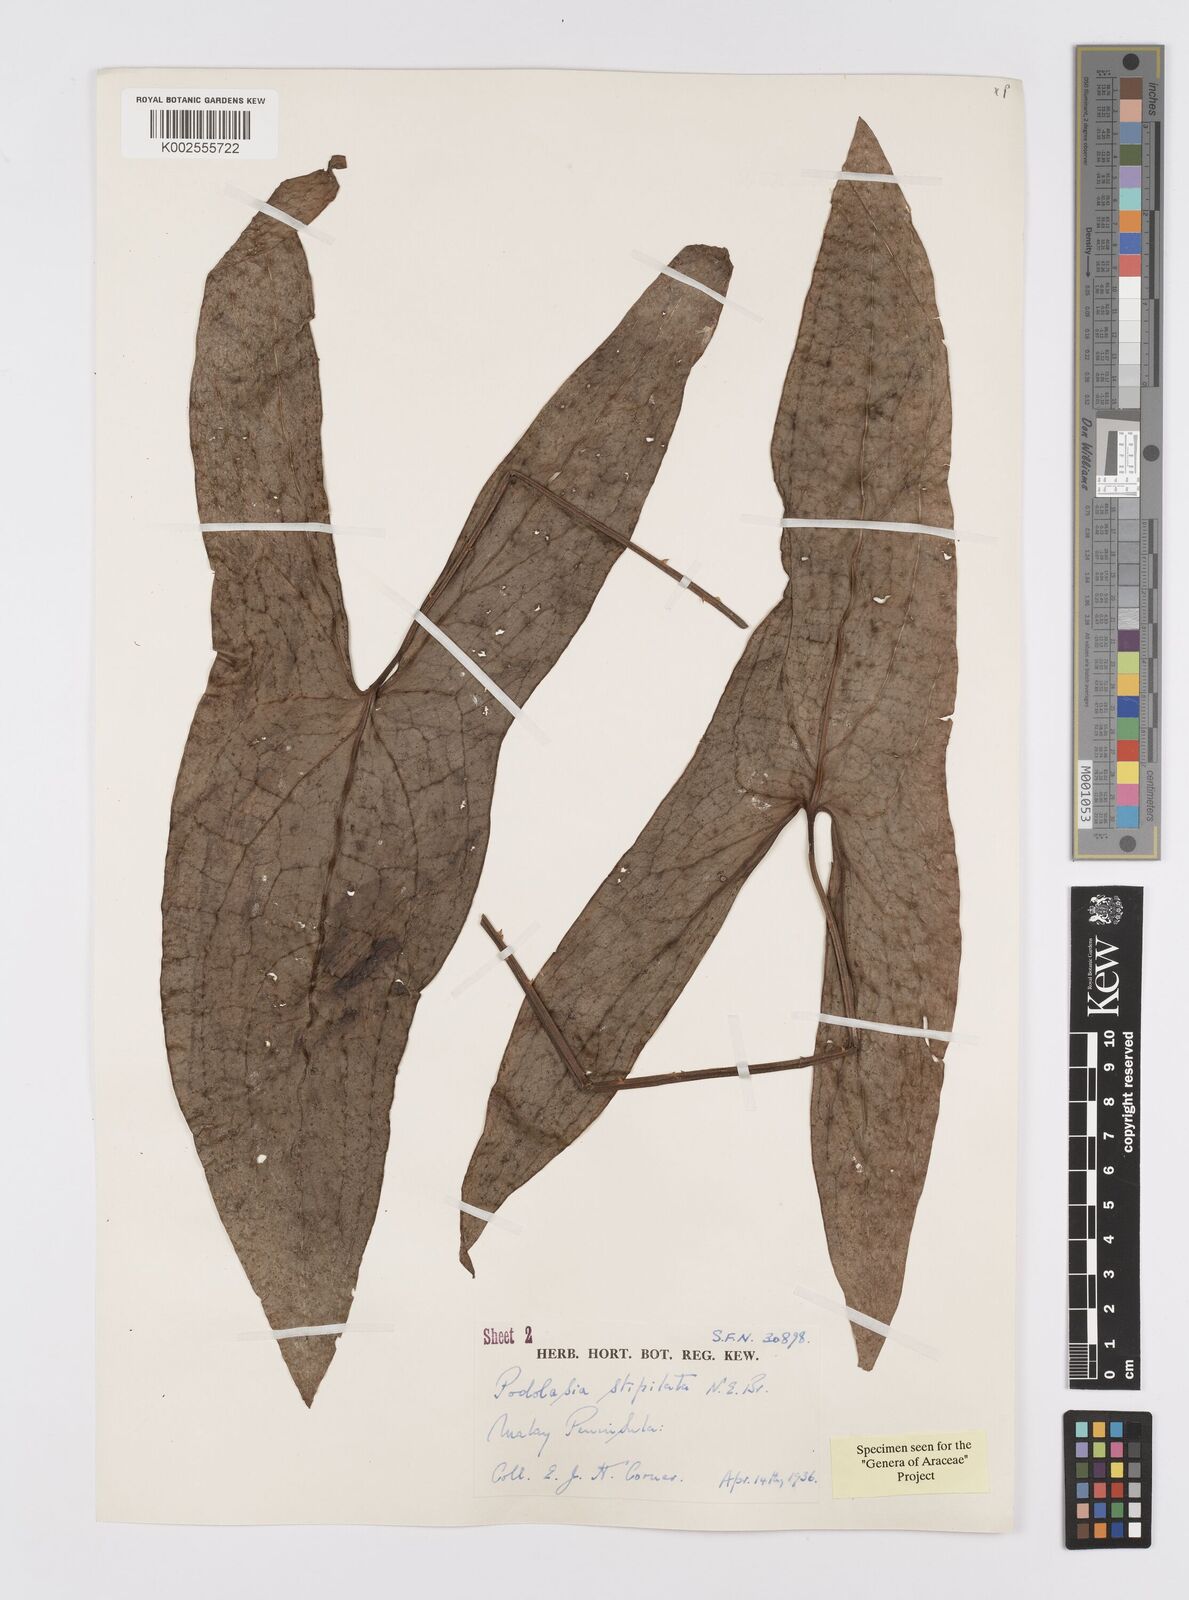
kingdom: Plantae
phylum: Tracheophyta
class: Liliopsida
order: Alismatales
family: Araceae
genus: Podolasia
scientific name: Podolasia stipitata
